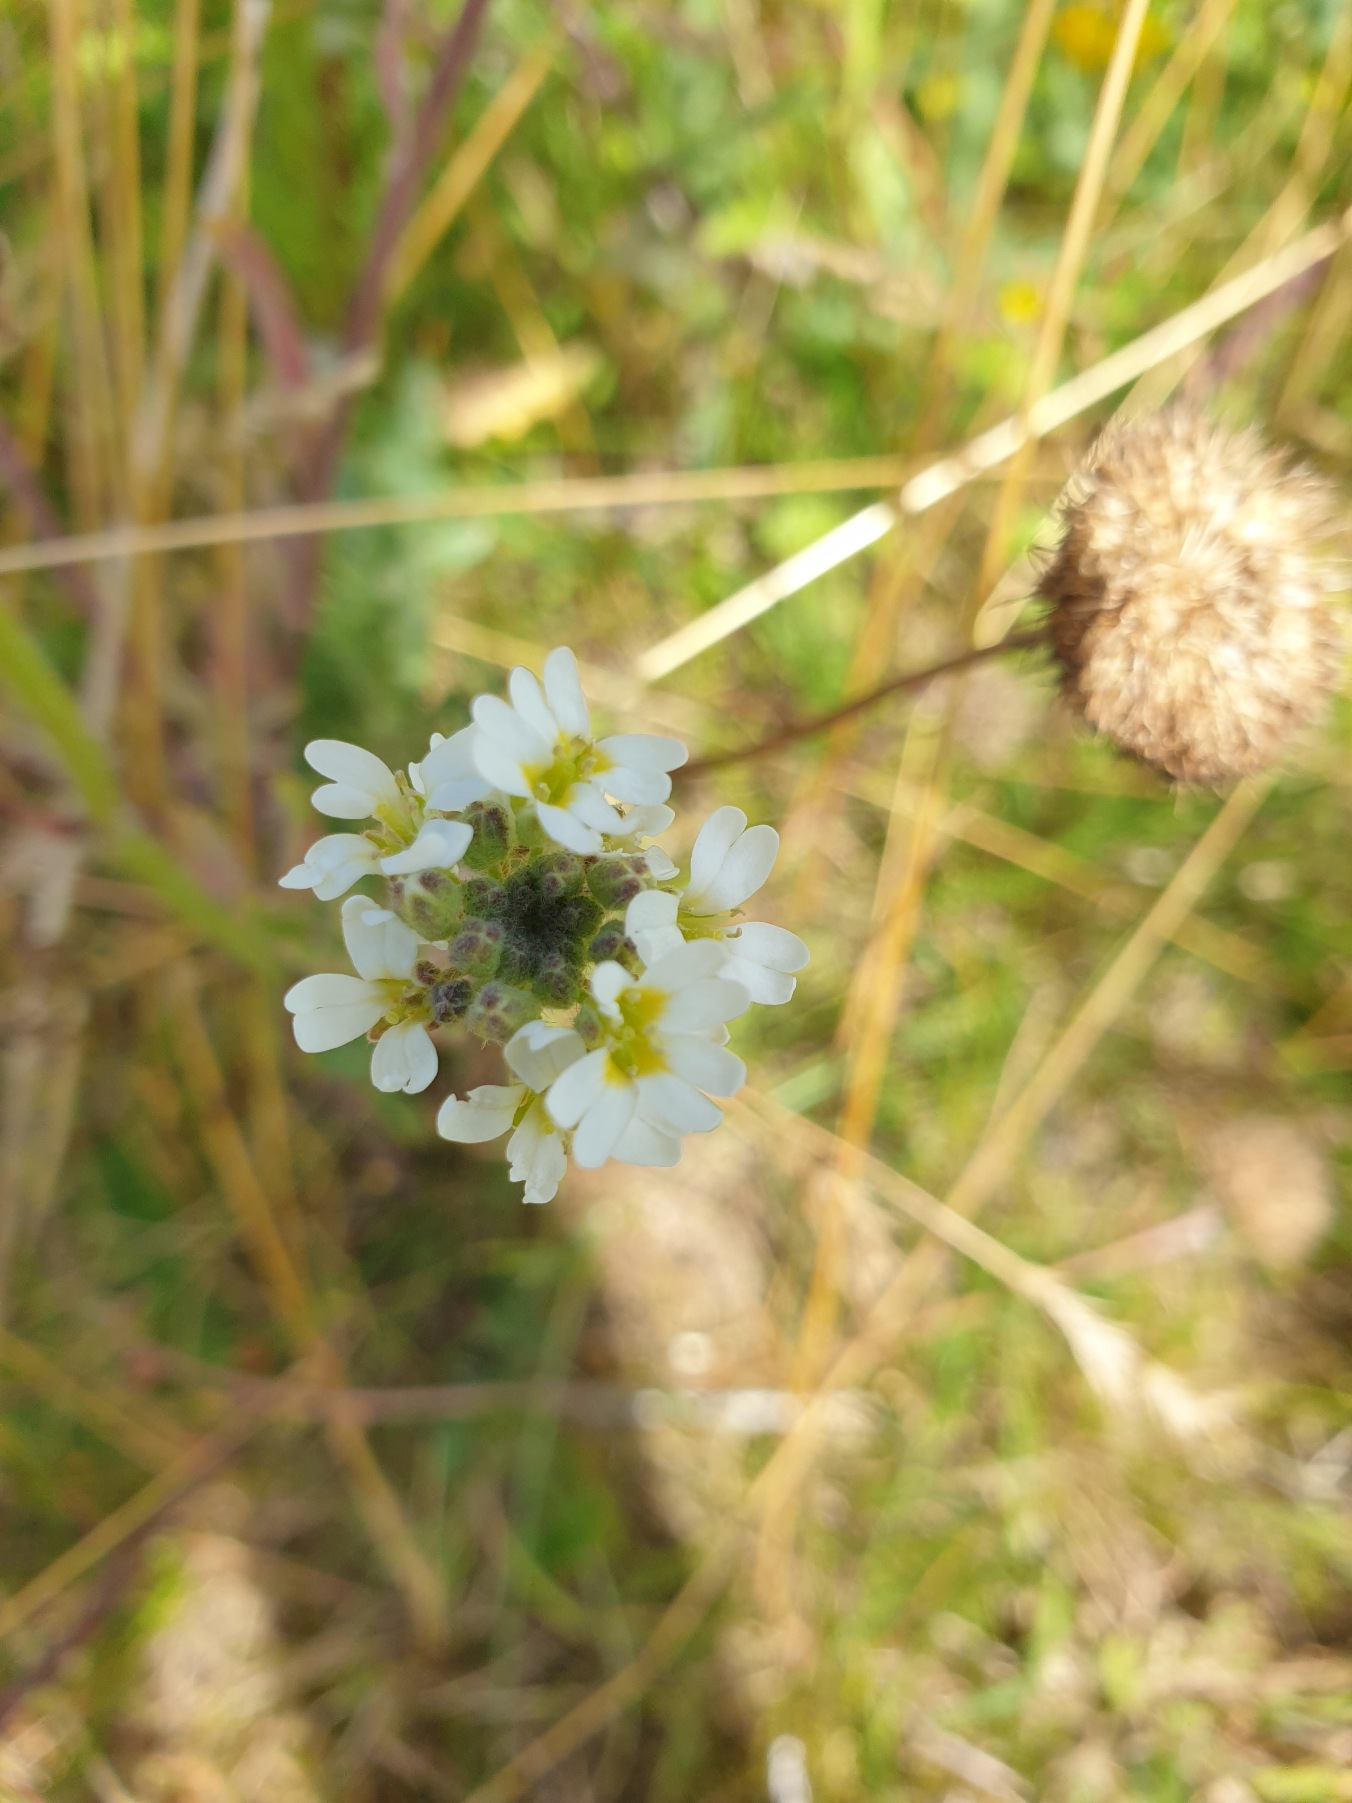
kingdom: Plantae
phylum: Tracheophyta
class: Magnoliopsida
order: Brassicales
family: Brassicaceae
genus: Berteroa
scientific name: Berteroa incana
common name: Kløvplade
